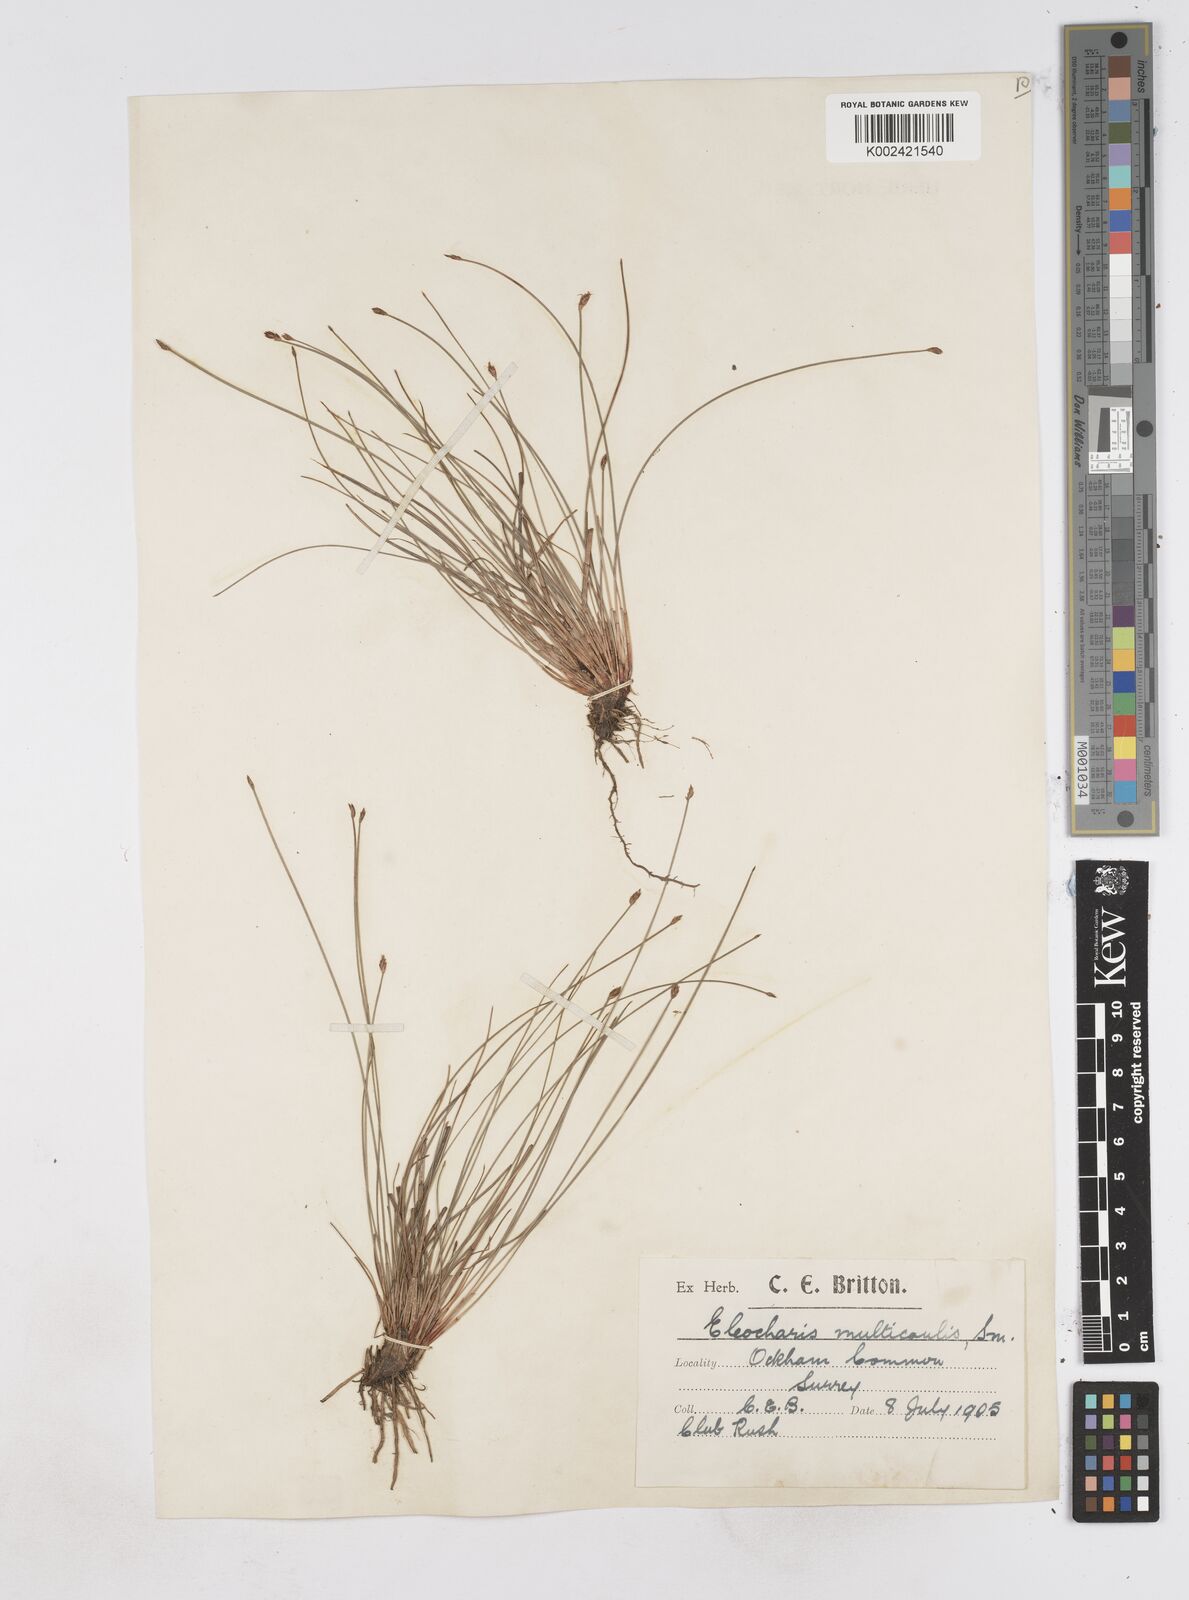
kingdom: Plantae
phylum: Tracheophyta
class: Liliopsida
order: Poales
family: Cyperaceae
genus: Eleocharis
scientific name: Eleocharis multicaulis
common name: Many-stalked spike-rush
